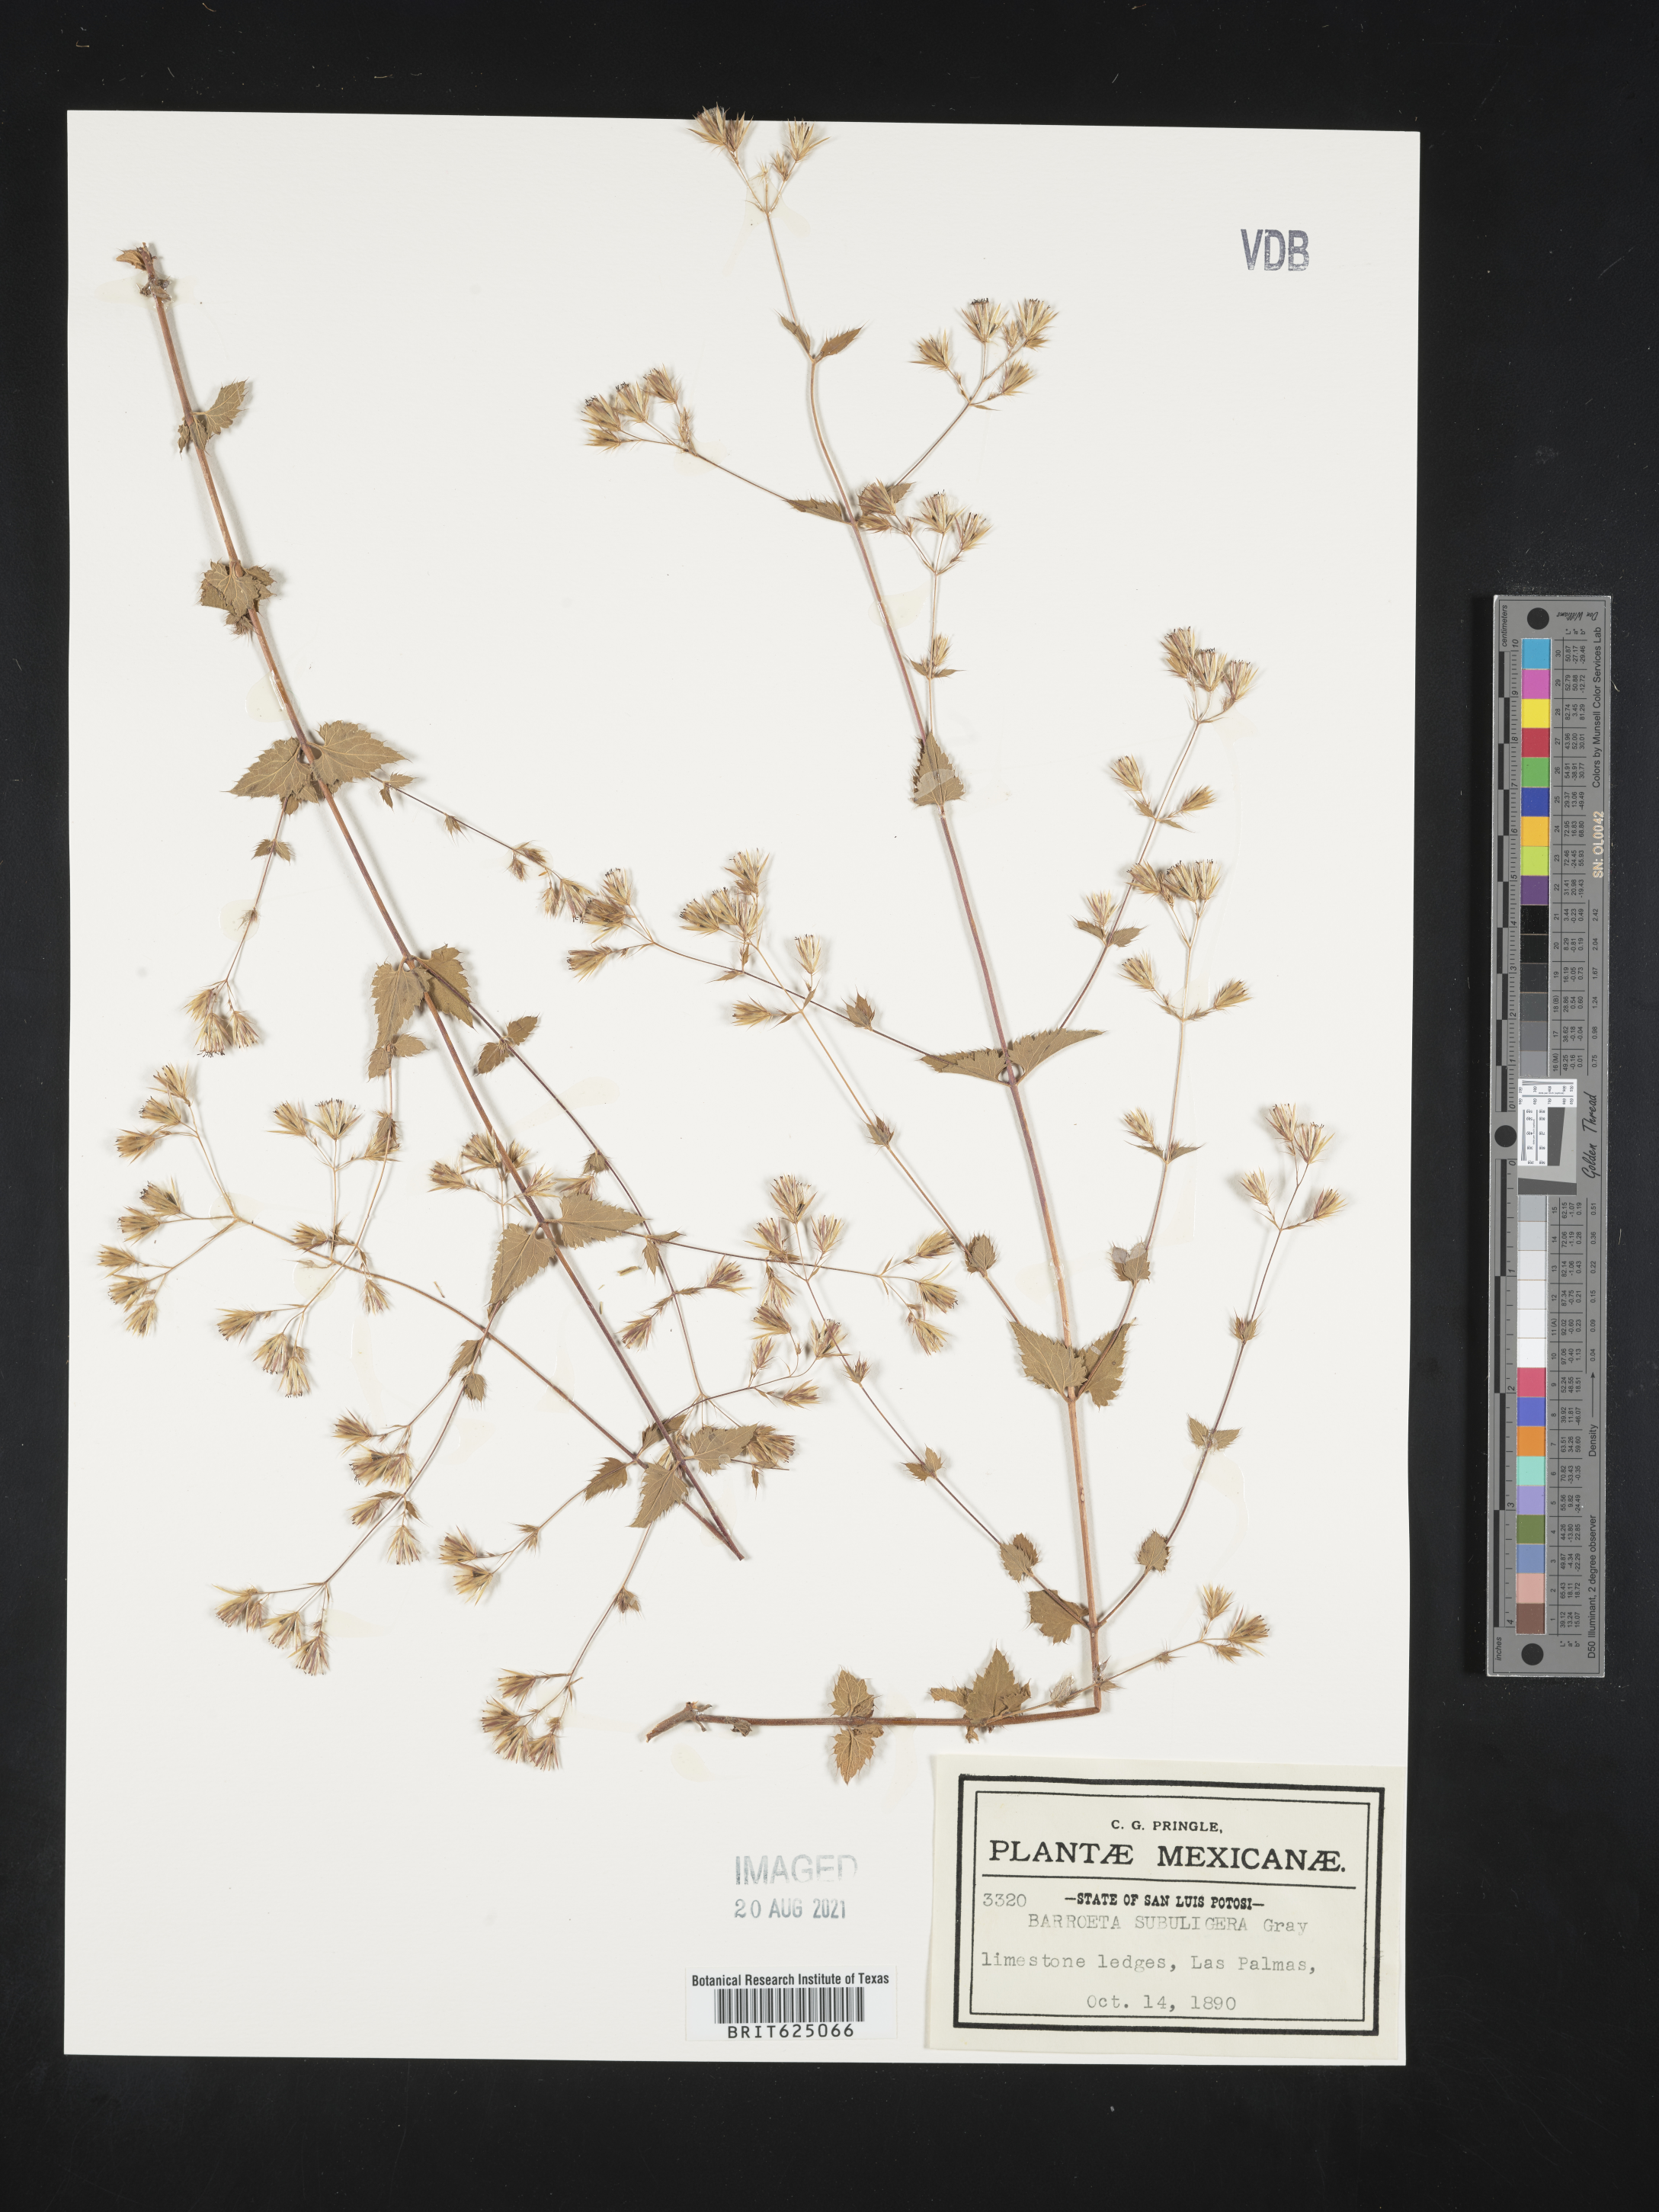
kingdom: Plantae
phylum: Tracheophyta
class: Magnoliopsida
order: Asterales
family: Asteraceae
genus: Brickellia
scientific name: Brickellia subuligera
